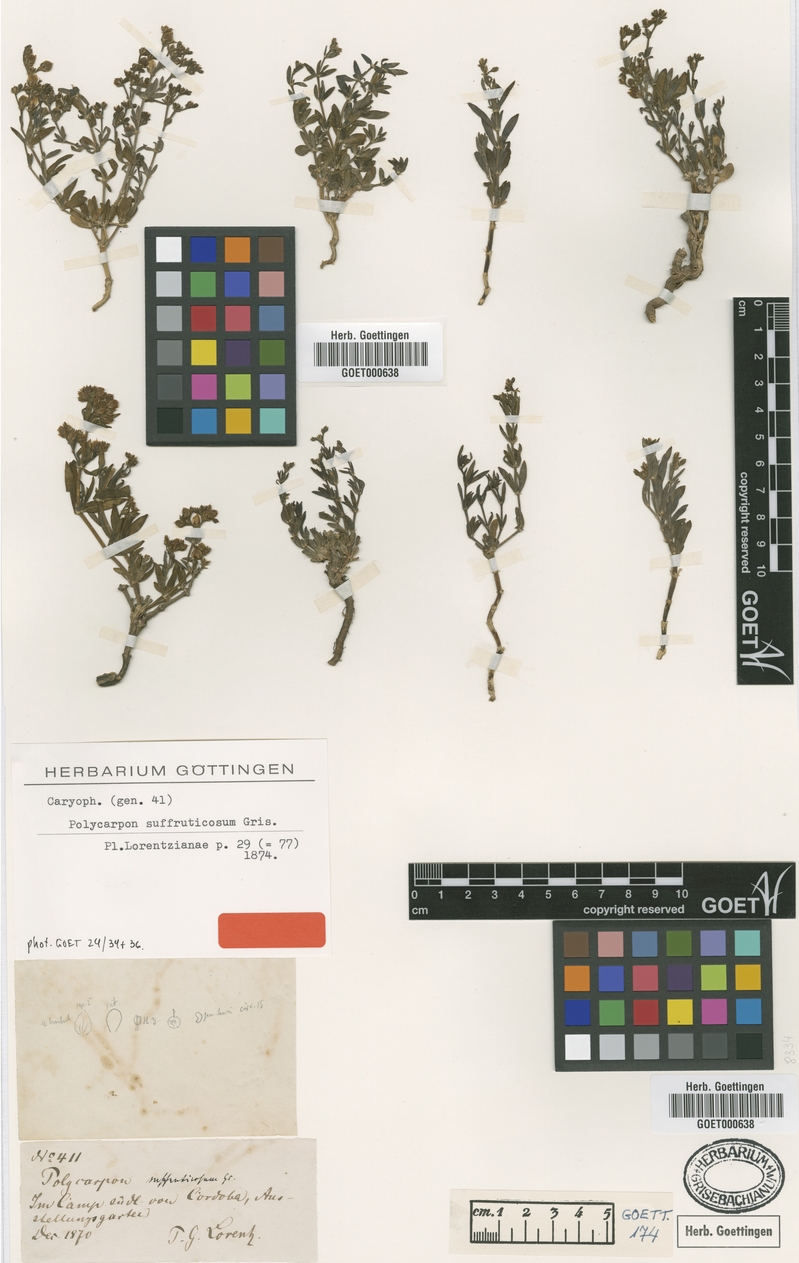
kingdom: Plantae
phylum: Tracheophyta
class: Magnoliopsida
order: Caryophyllales
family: Caryophyllaceae
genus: Augustea
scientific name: Augustea suffruticosa
